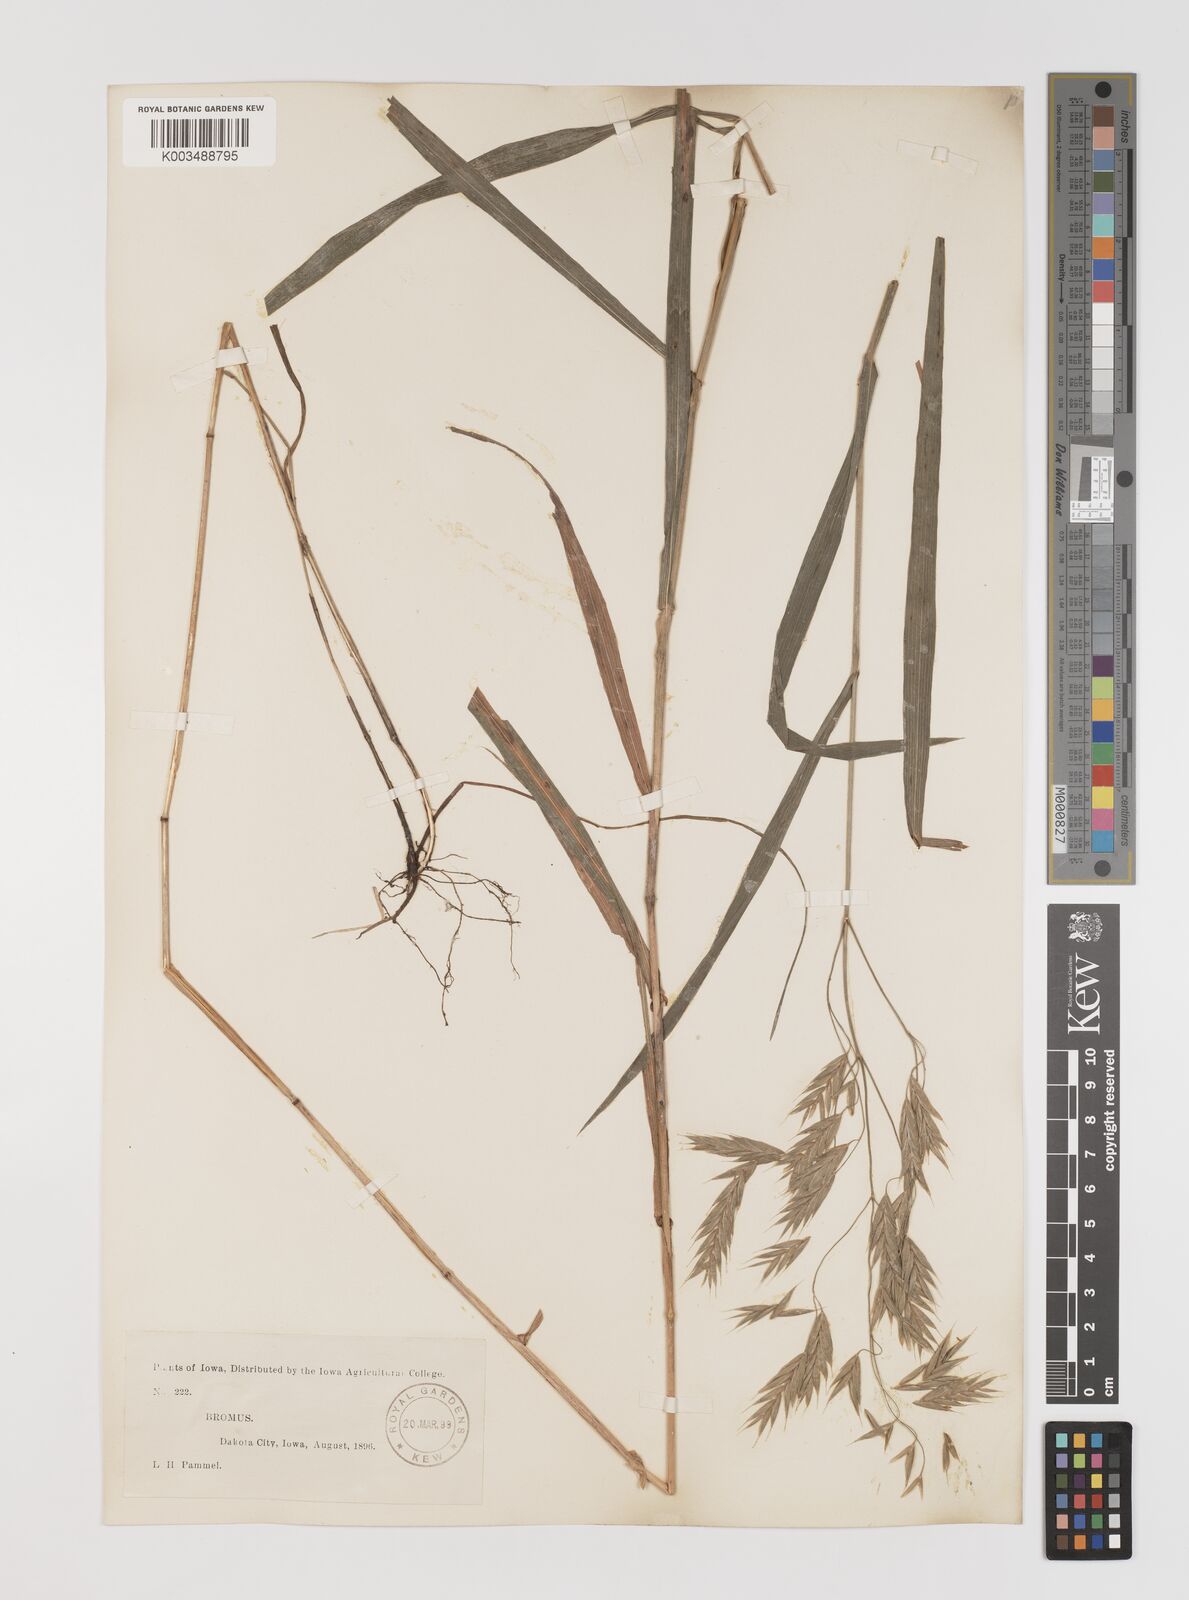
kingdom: Plantae
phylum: Tracheophyta
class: Liliopsida
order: Poales
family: Poaceae
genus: Bromus
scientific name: Bromus
